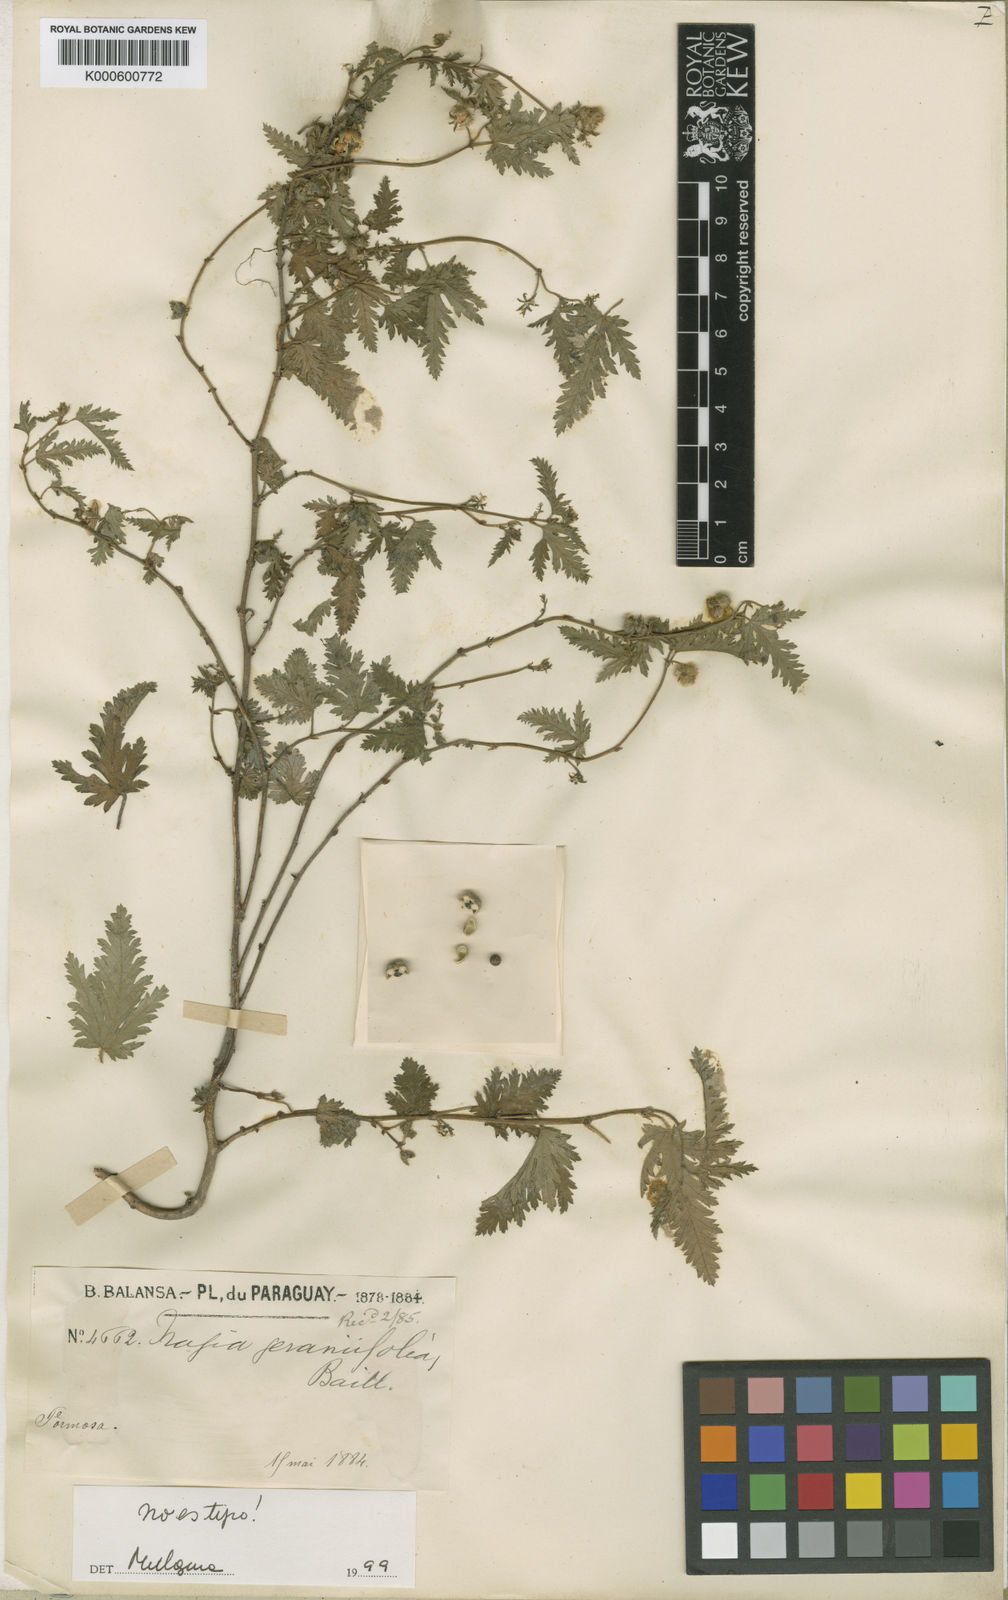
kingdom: Plantae
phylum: Tracheophyta
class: Magnoliopsida
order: Malpighiales
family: Euphorbiaceae
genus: Tragia
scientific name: Tragia
